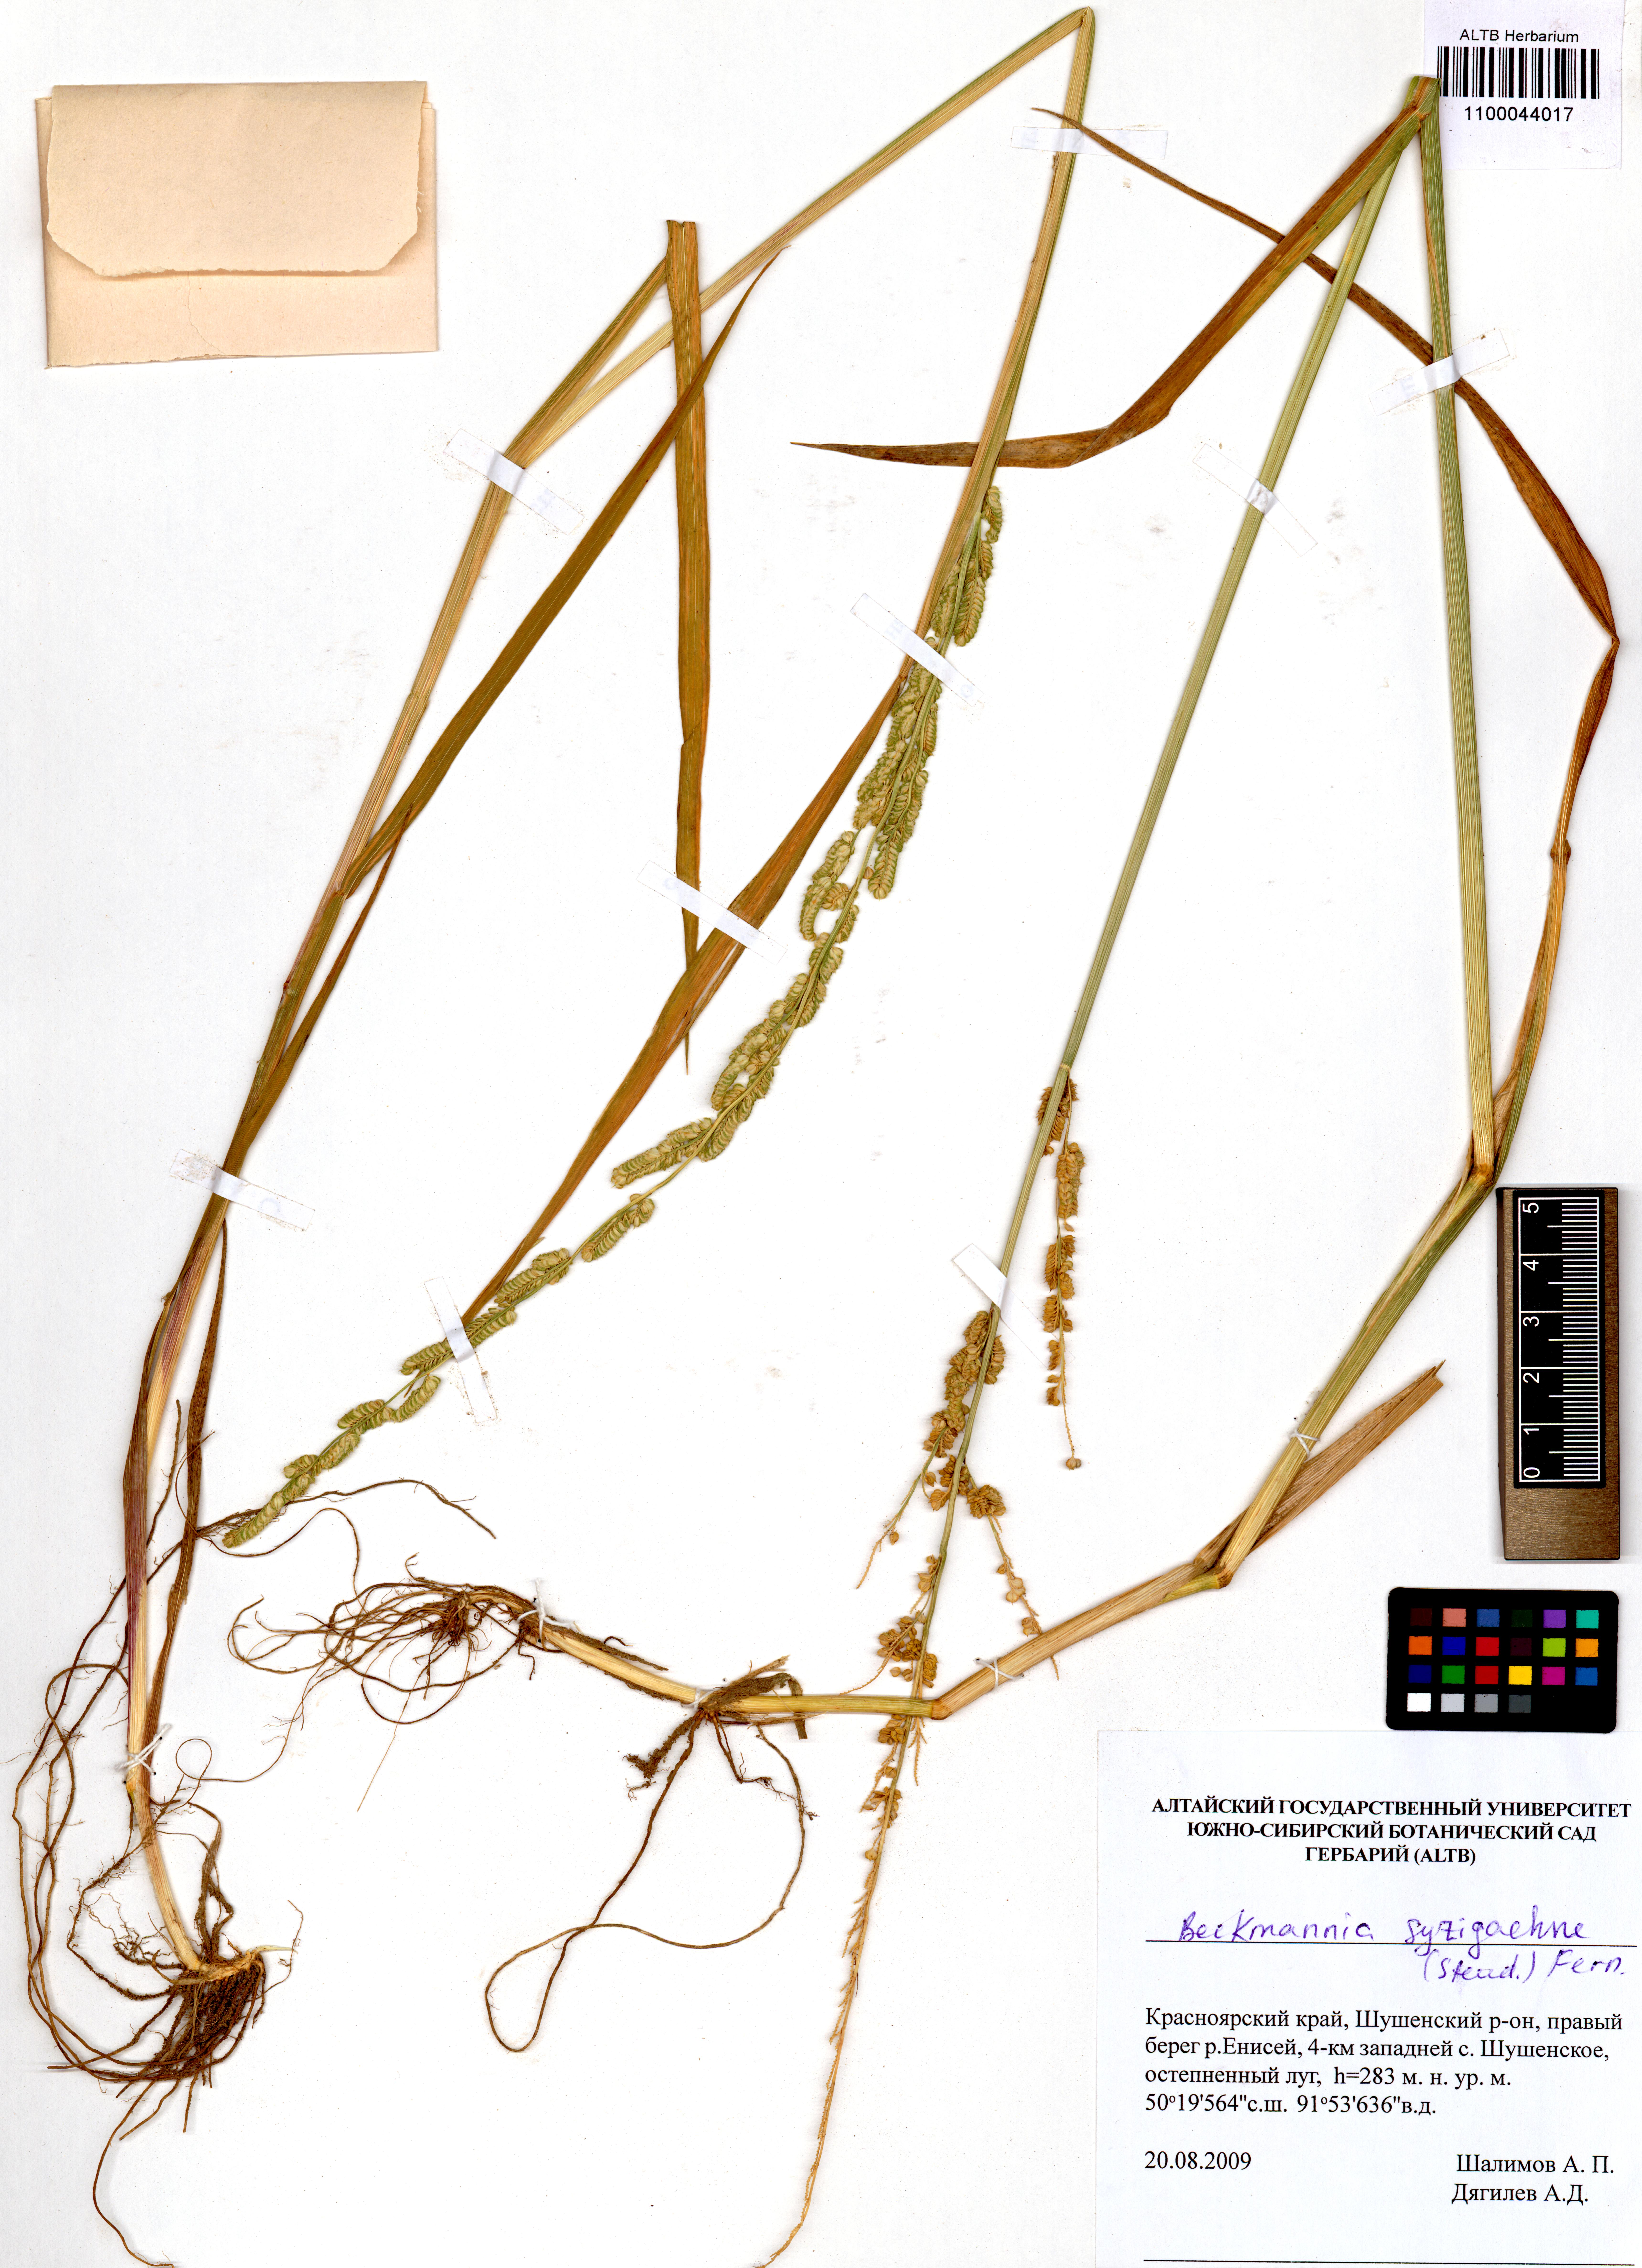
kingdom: Plantae
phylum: Tracheophyta
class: Liliopsida
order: Poales
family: Poaceae
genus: Beckmannia
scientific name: Beckmannia syzigachne
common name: American slough-grass
